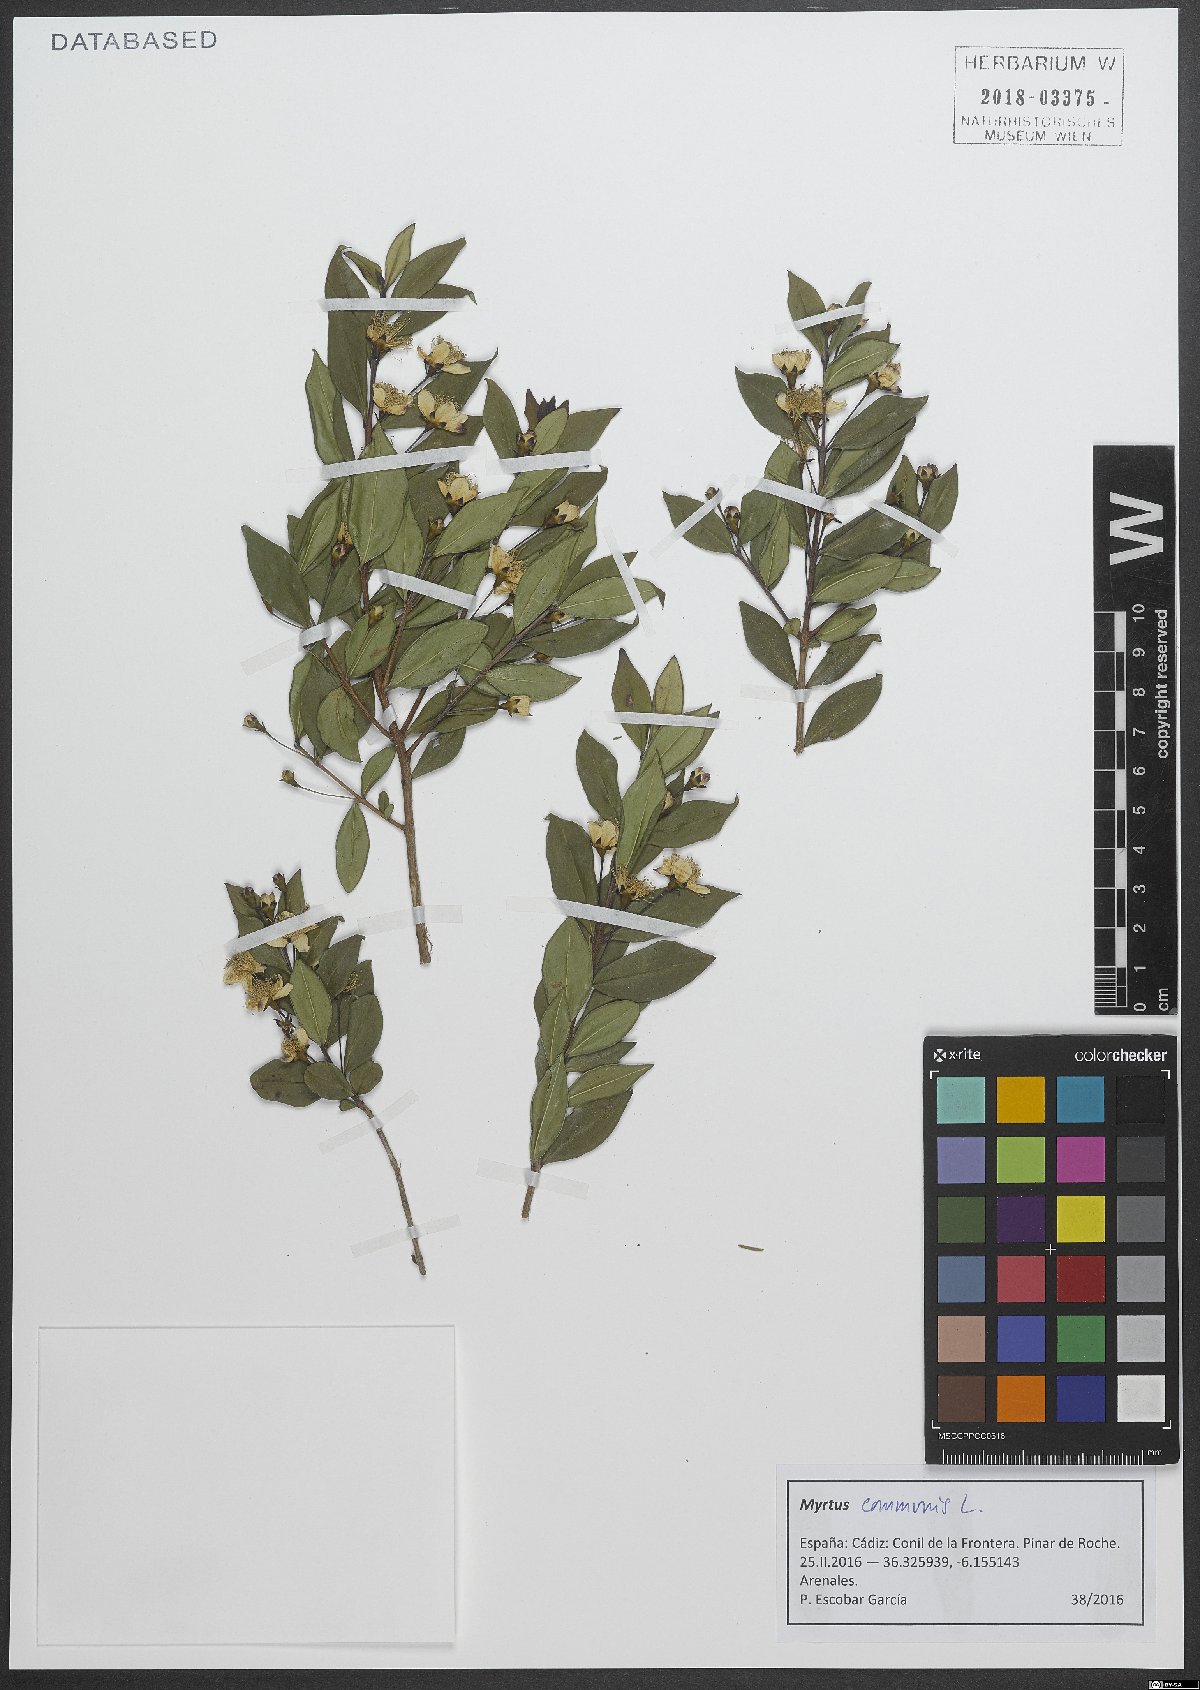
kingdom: Plantae
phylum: Tracheophyta
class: Magnoliopsida
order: Myrtales
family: Myrtaceae
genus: Myrtus
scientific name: Myrtus communis
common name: Myrtle
